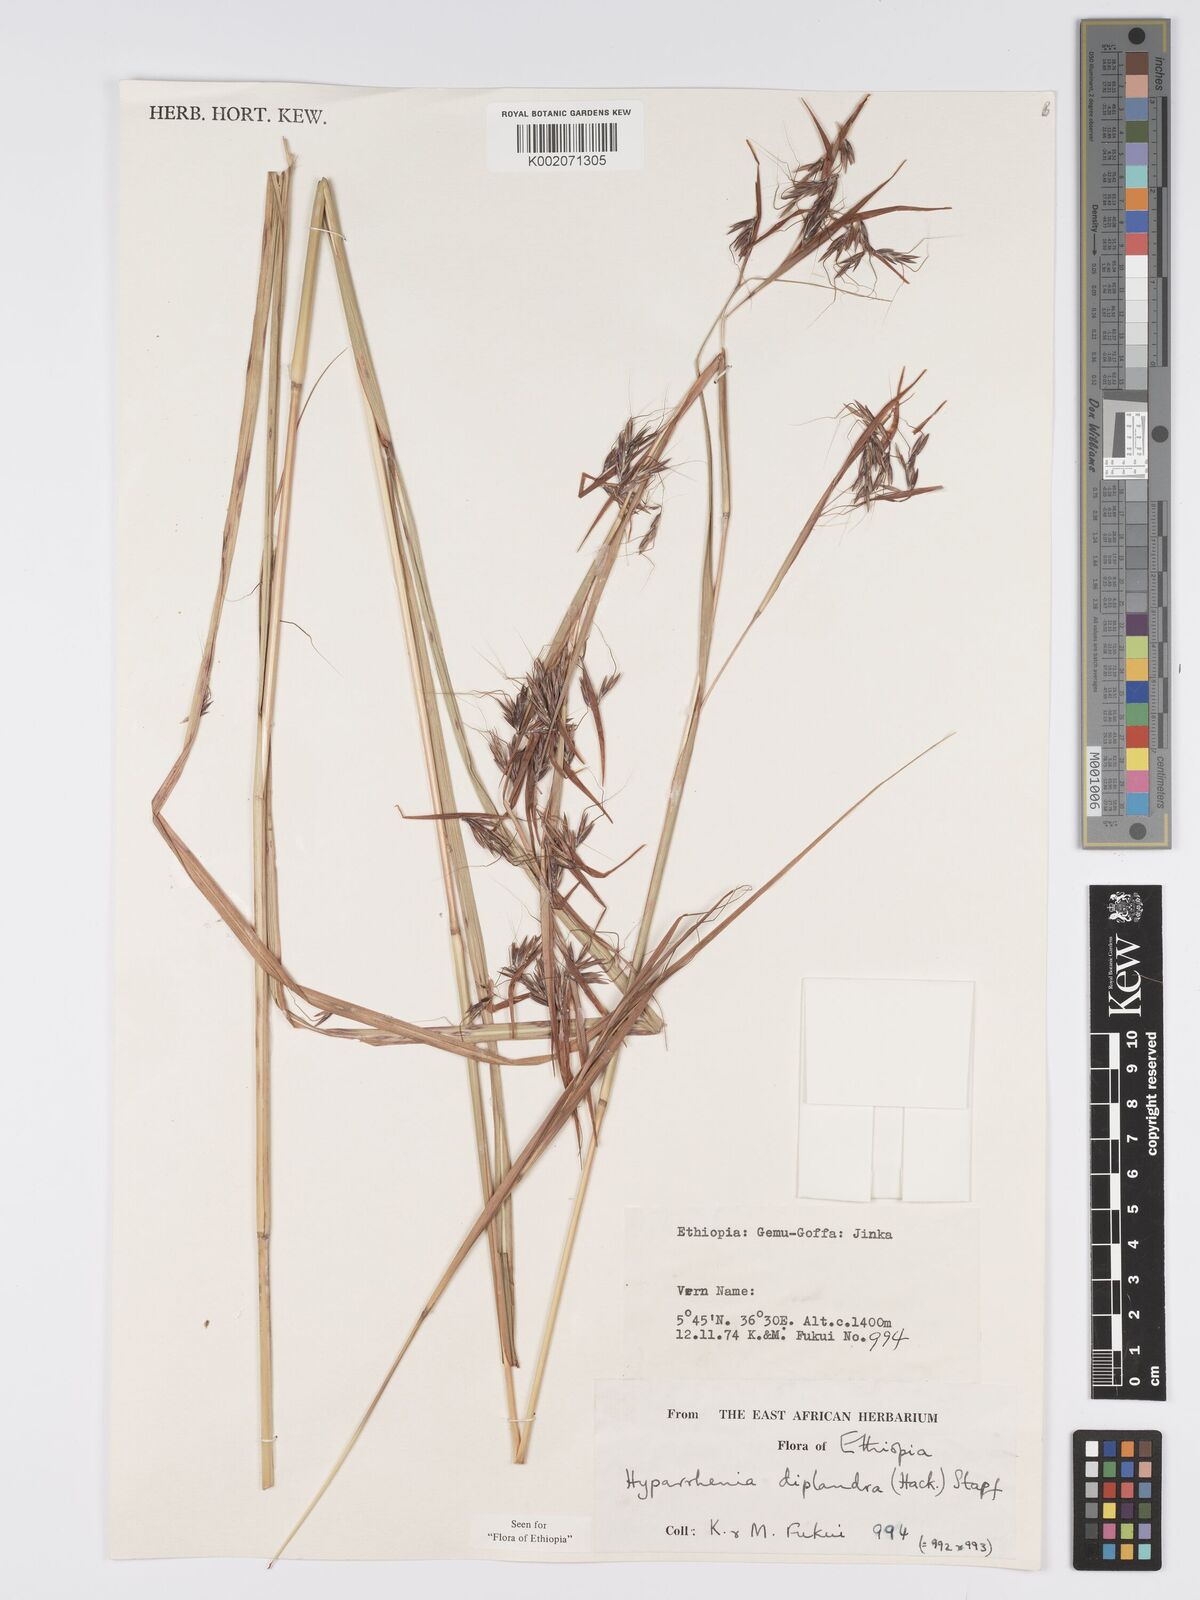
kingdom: Plantae
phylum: Tracheophyta
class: Liliopsida
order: Poales
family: Poaceae
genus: Hyparrhenia
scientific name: Hyparrhenia diplandra
